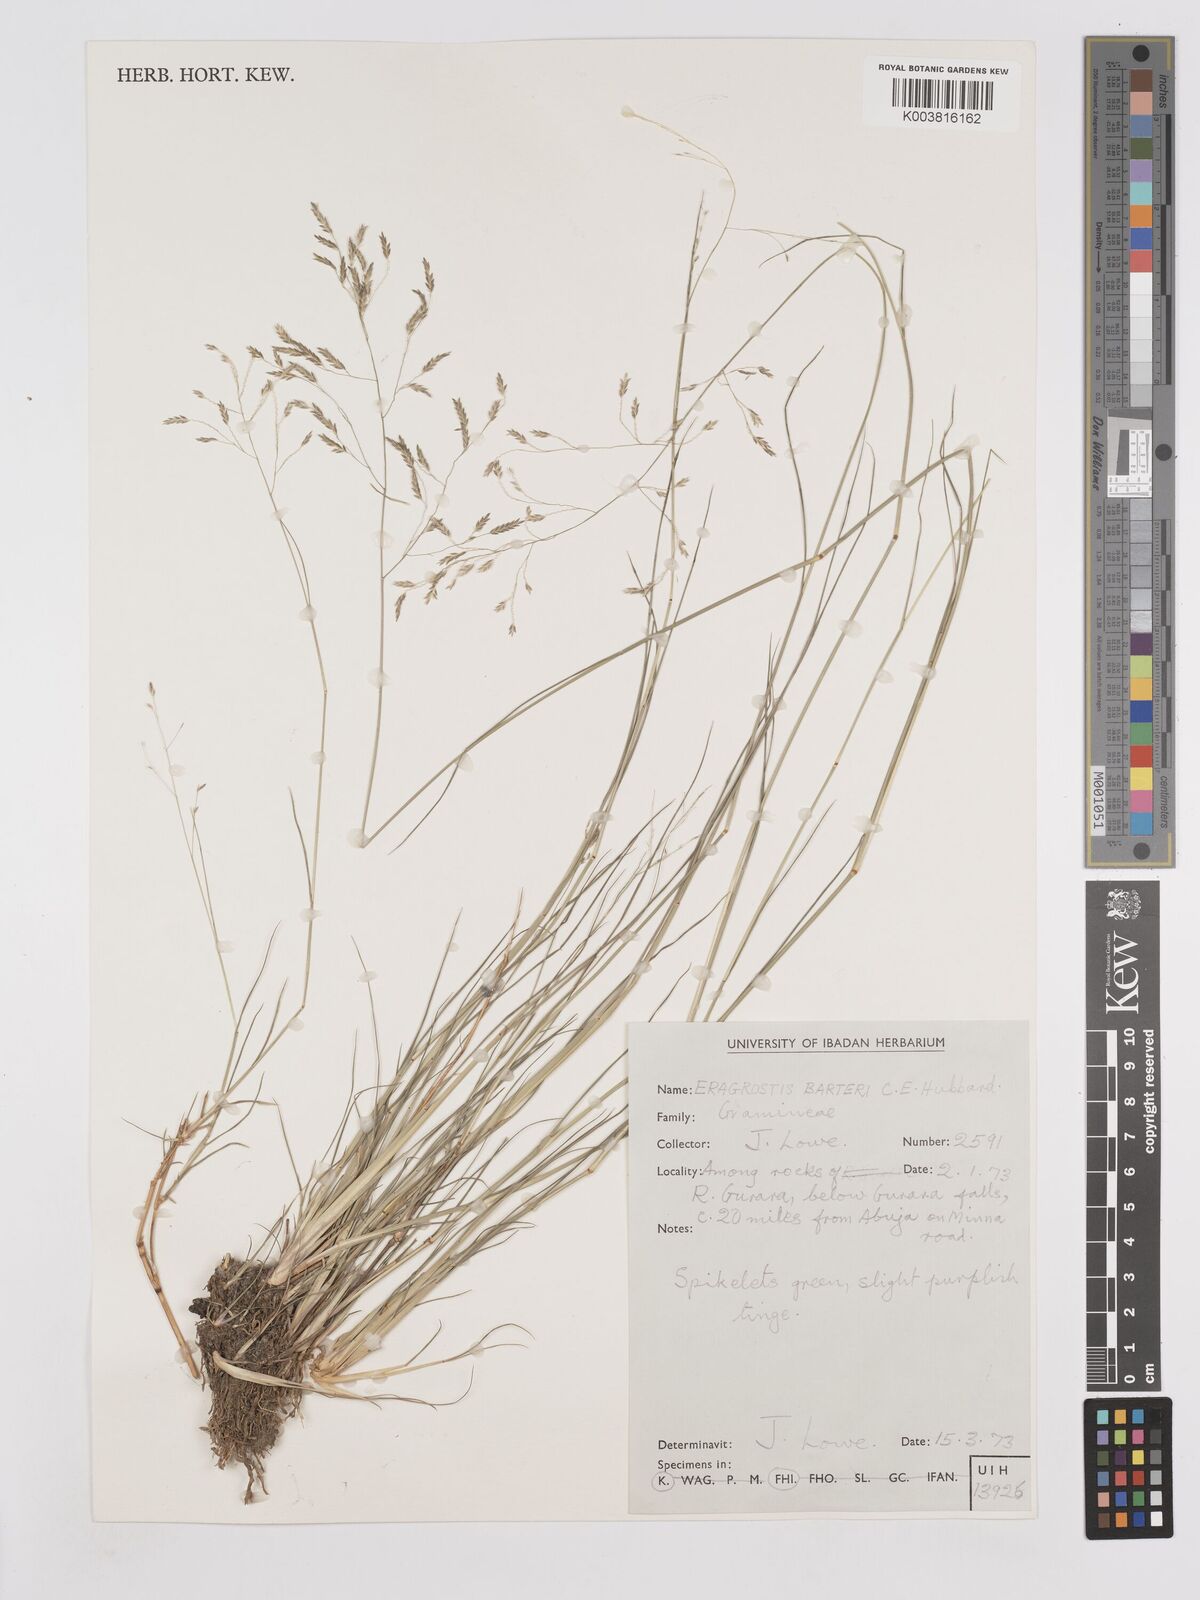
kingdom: Plantae
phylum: Tracheophyta
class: Liliopsida
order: Poales
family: Poaceae
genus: Eragrostis
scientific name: Eragrostis barteri
